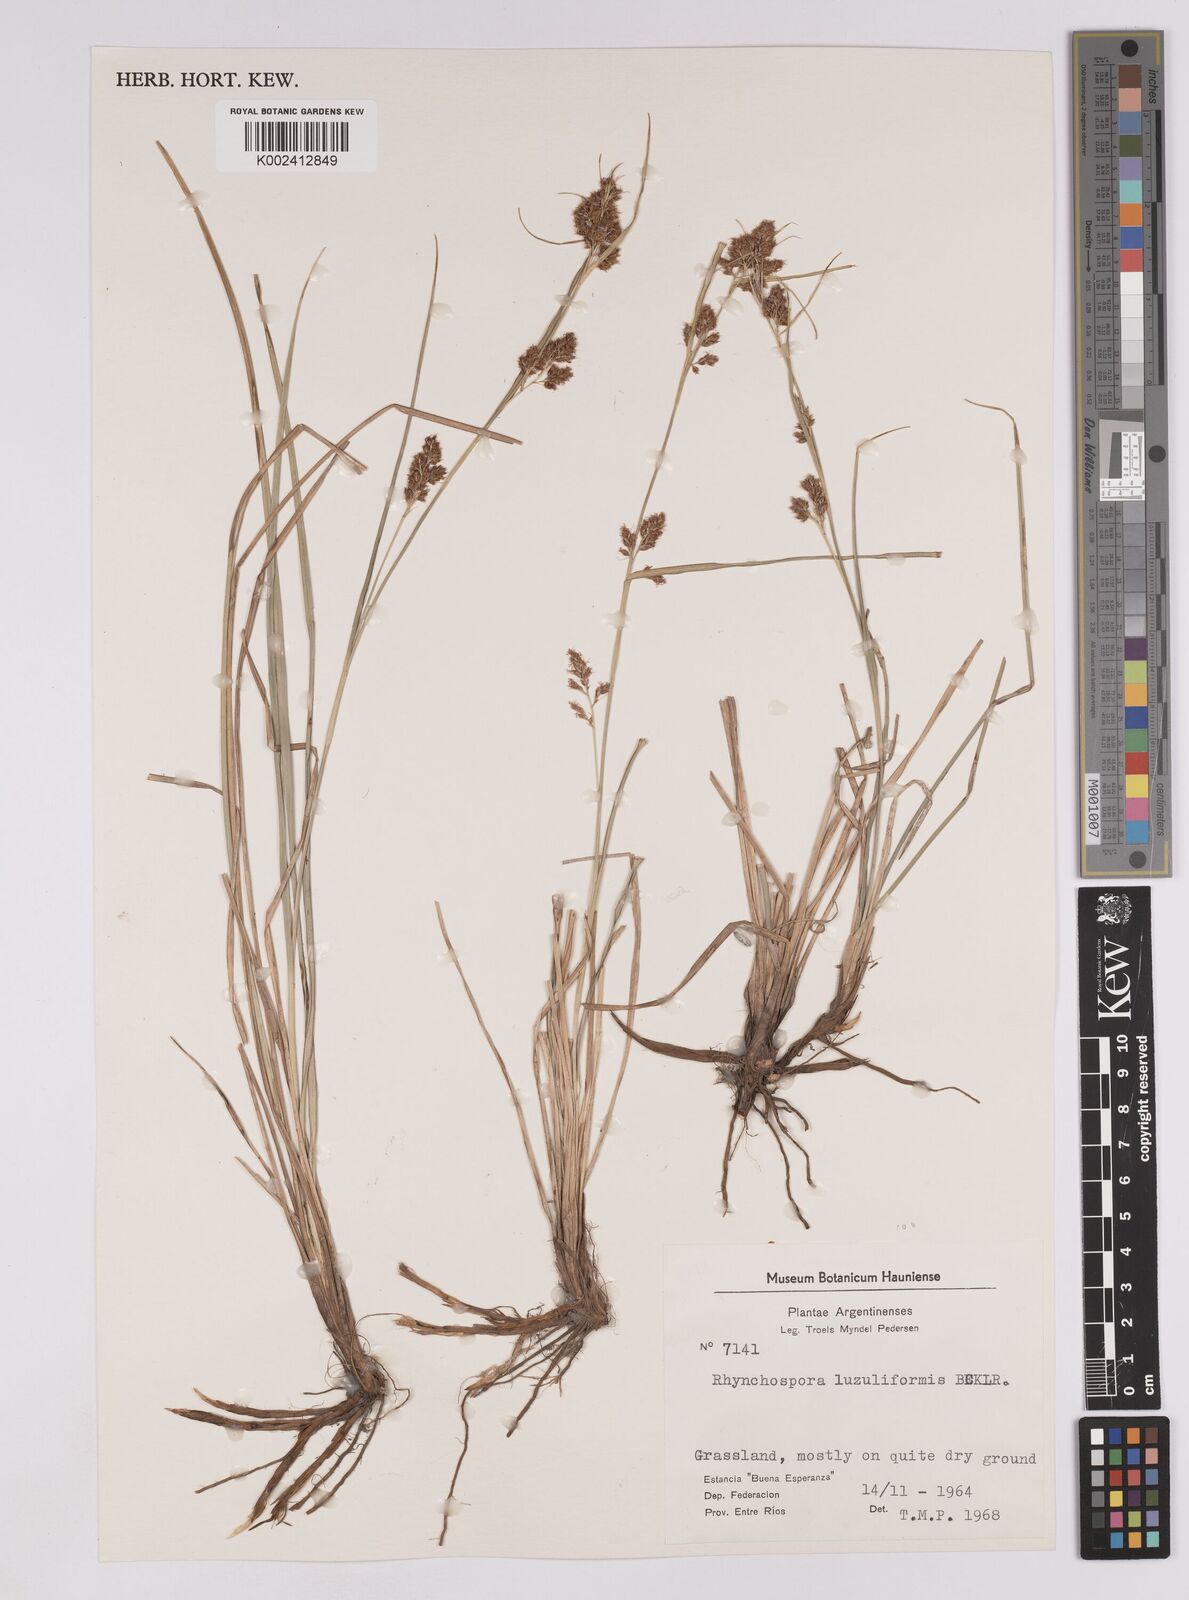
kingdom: Plantae
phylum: Tracheophyta
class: Liliopsida
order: Poales
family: Cyperaceae
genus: Rhynchospora
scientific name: Rhynchospora megapotamica
